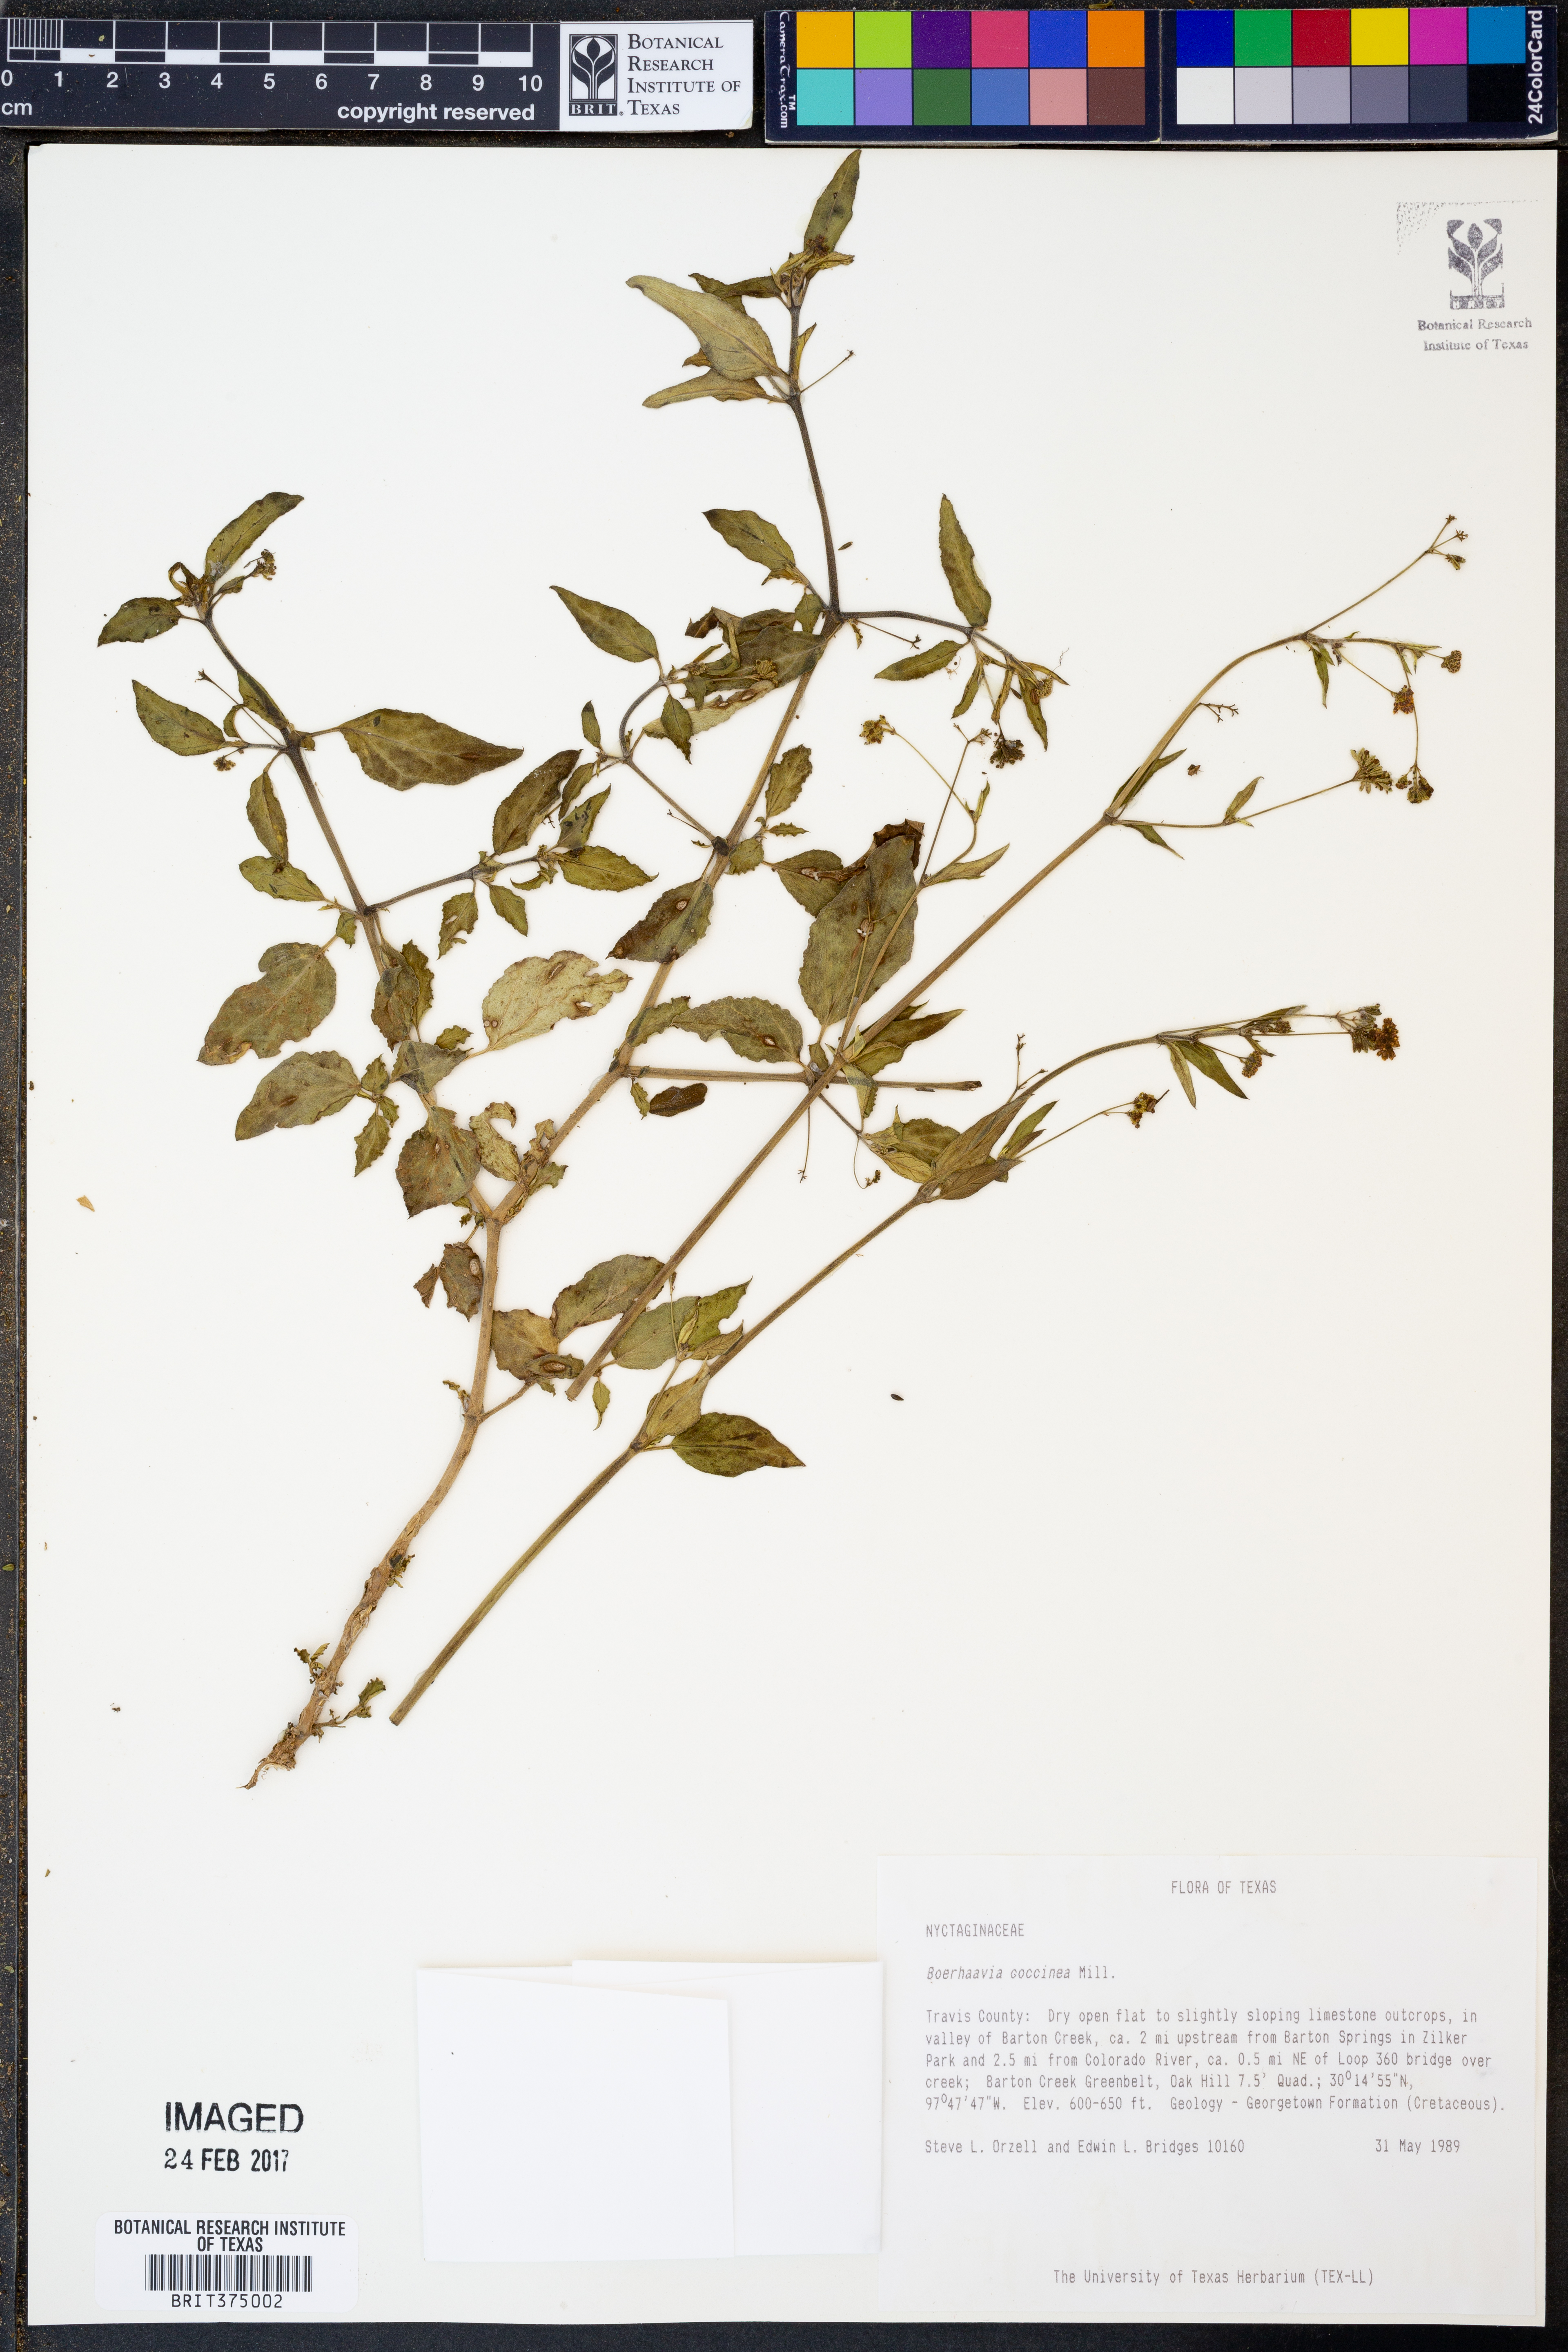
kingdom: Plantae
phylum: Tracheophyta
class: Magnoliopsida
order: Caryophyllales
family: Nyctaginaceae
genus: Boerhavia
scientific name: Boerhavia coccinea
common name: Scarlet spiderling
